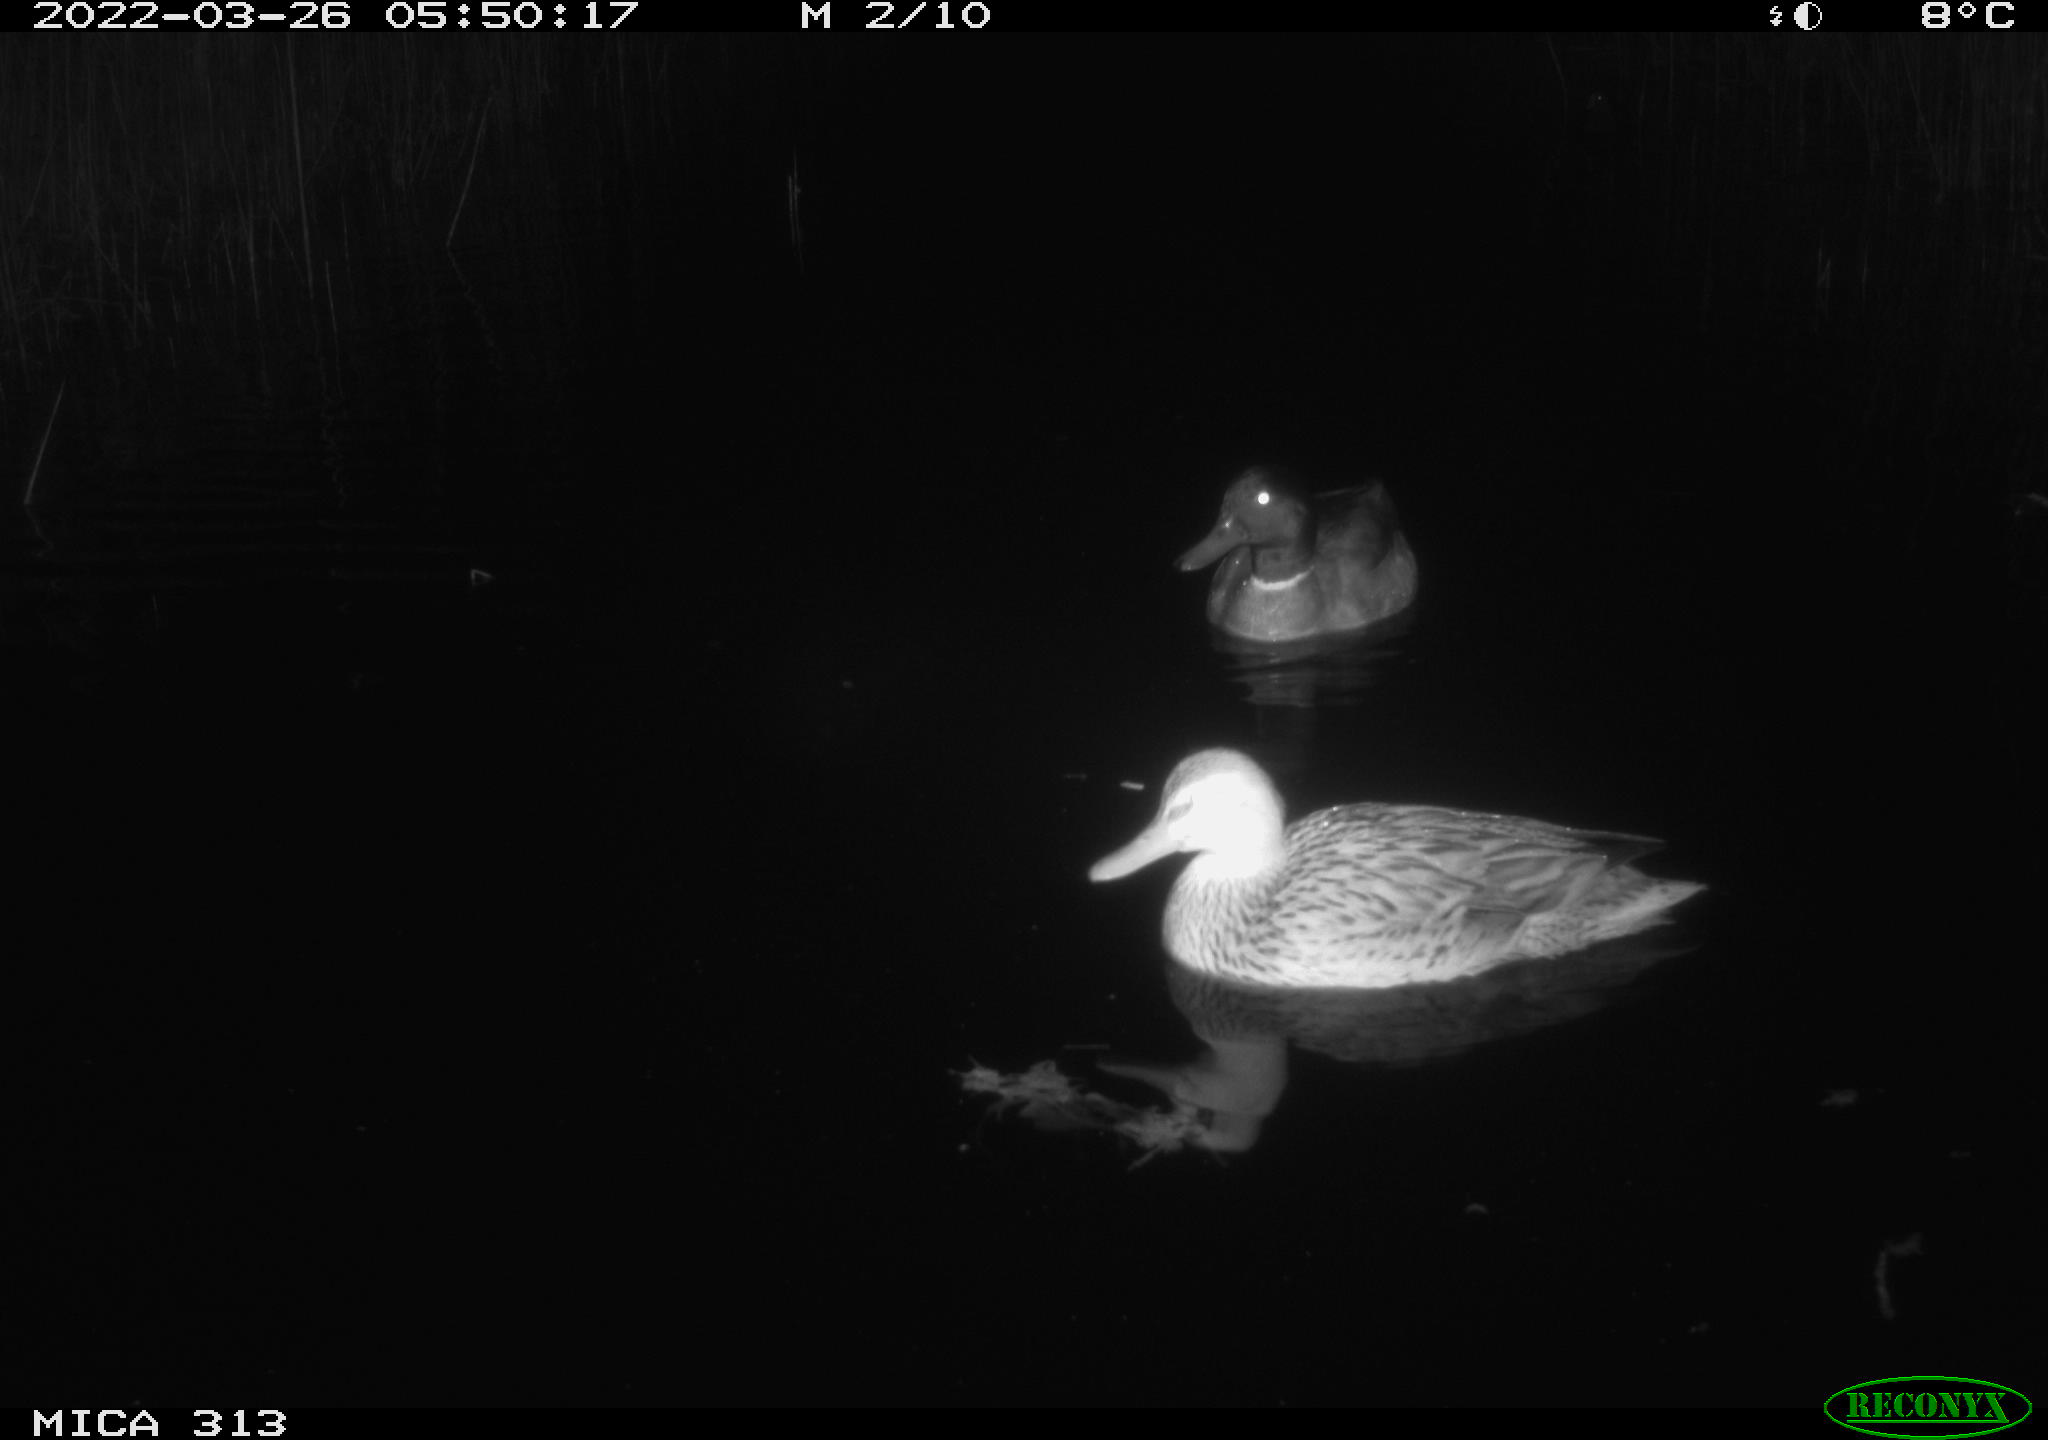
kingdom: Animalia
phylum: Chordata
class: Aves
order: Anseriformes
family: Anatidae
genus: Anas
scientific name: Anas platyrhynchos
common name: Mallard
